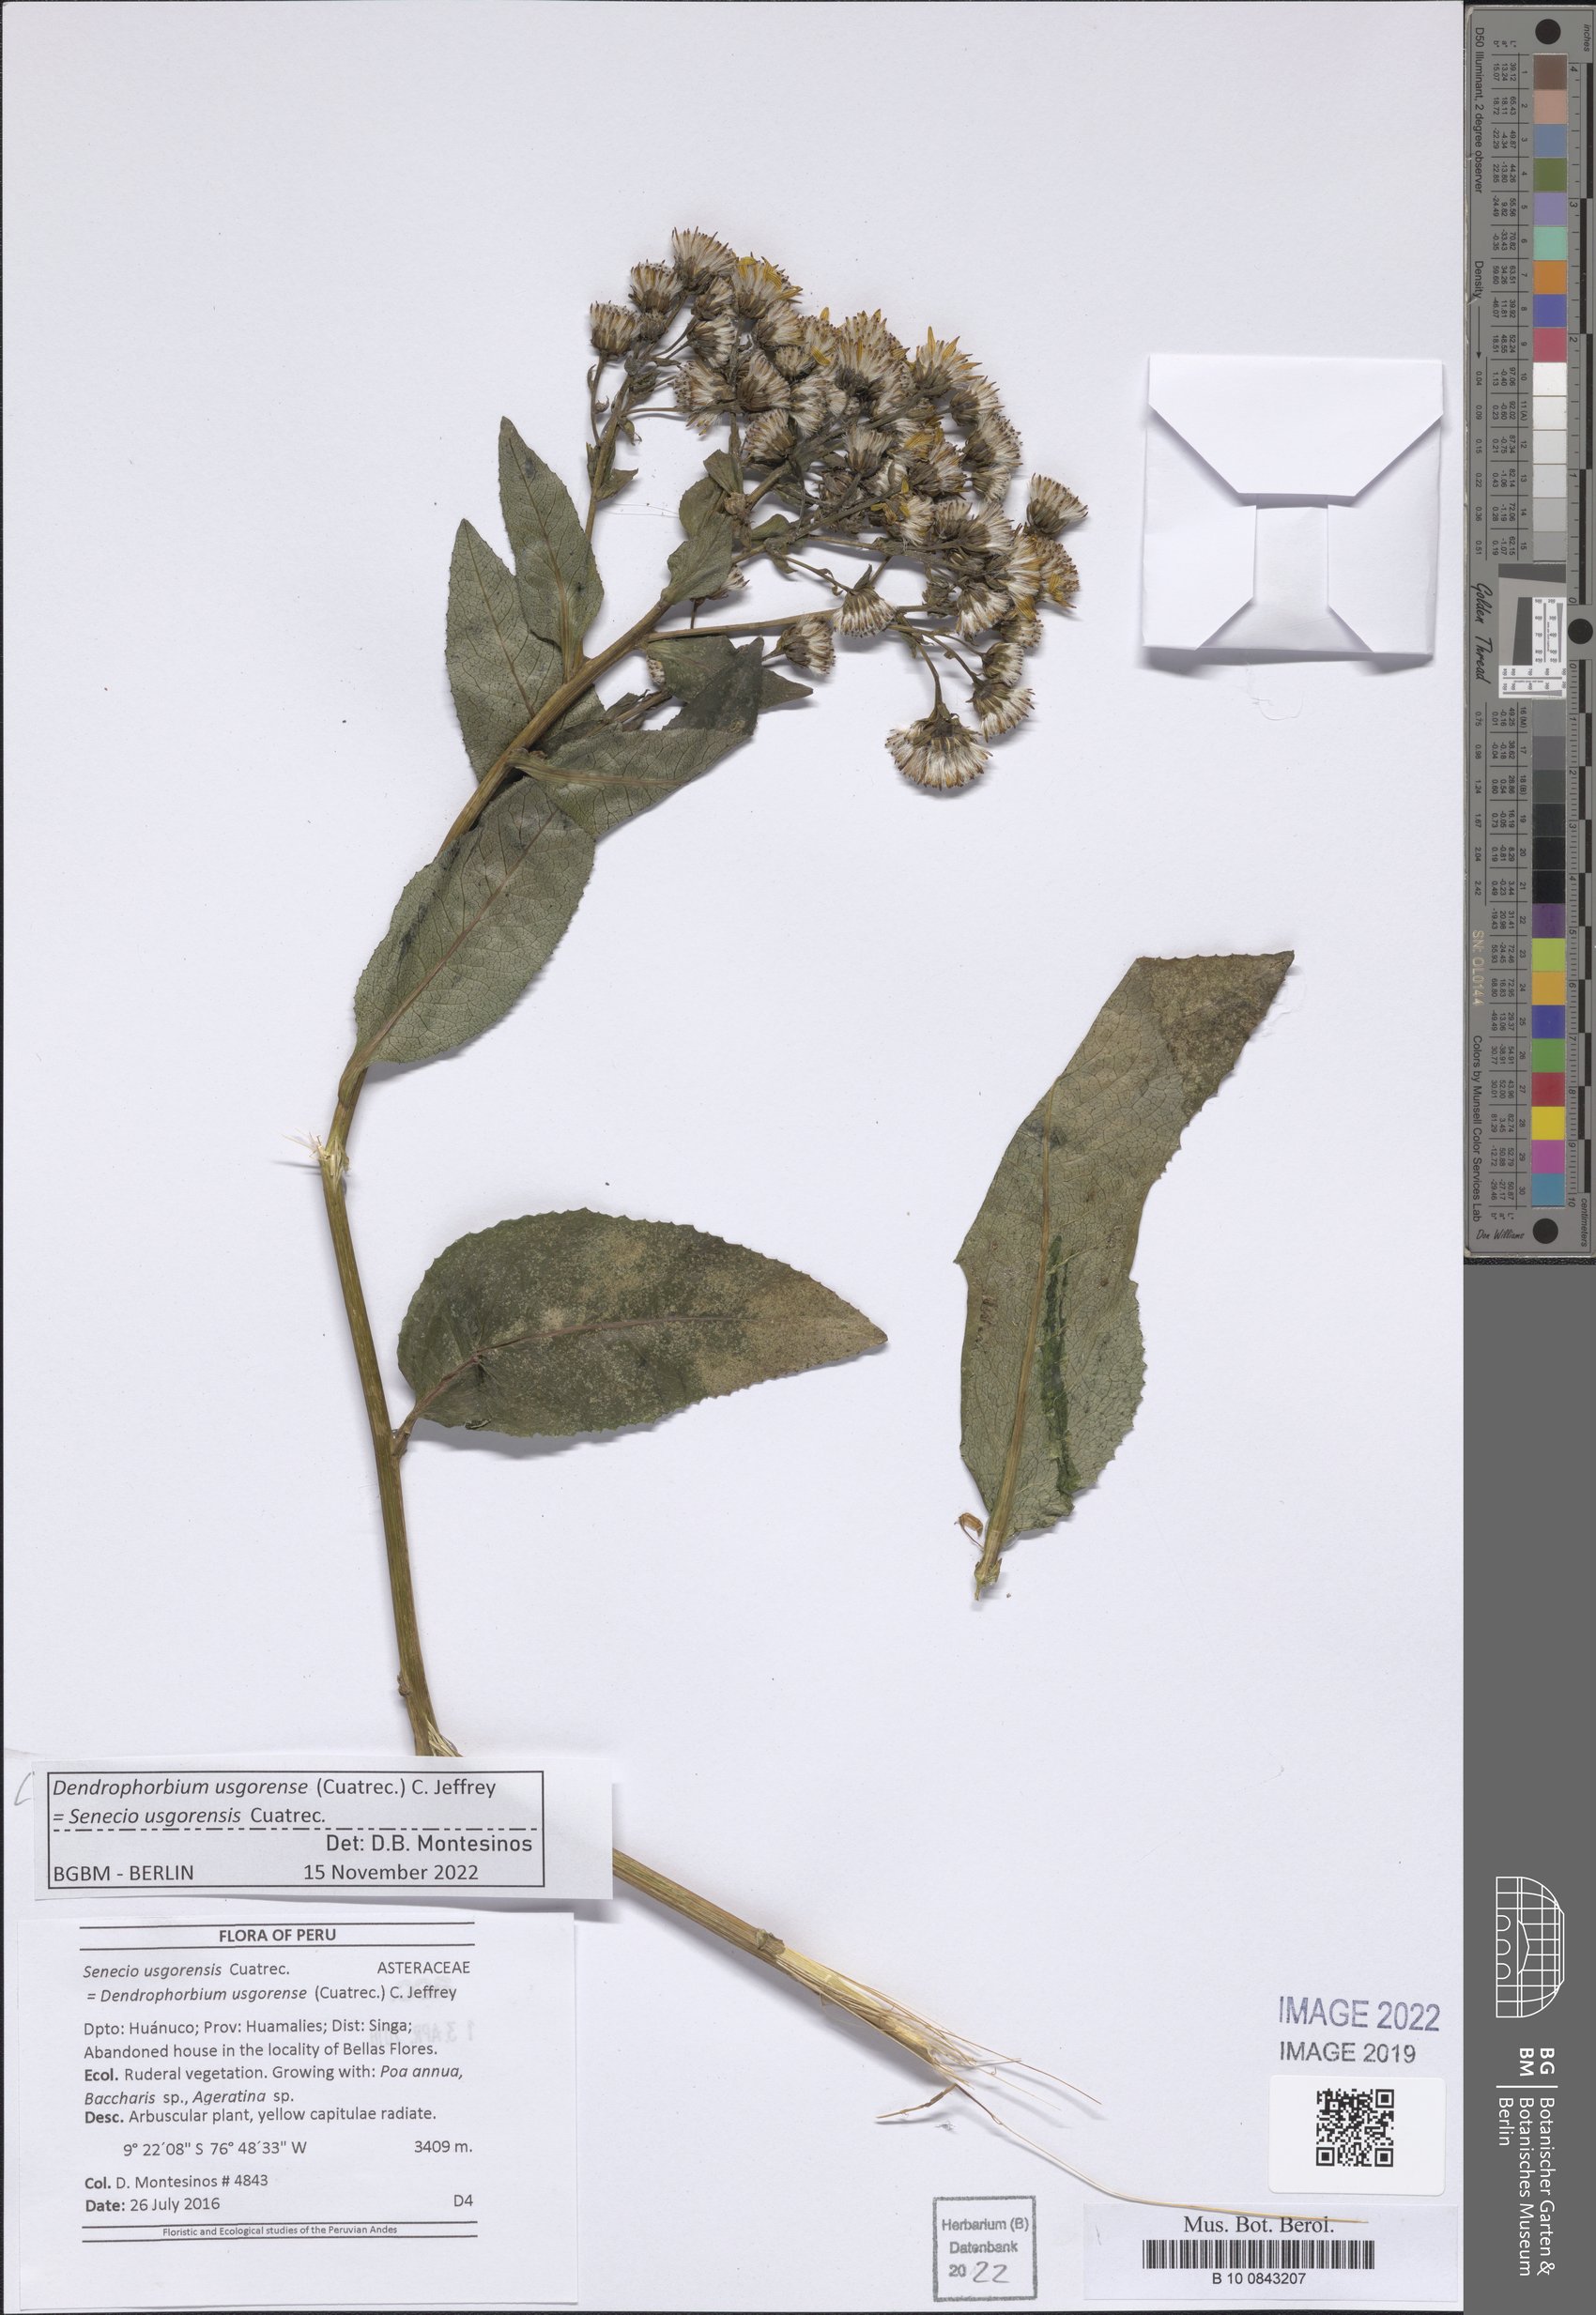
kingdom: Plantae
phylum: Tracheophyta
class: Magnoliopsida
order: Asterales
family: Asteraceae
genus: Dendrophorbium
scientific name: Dendrophorbium elatum
